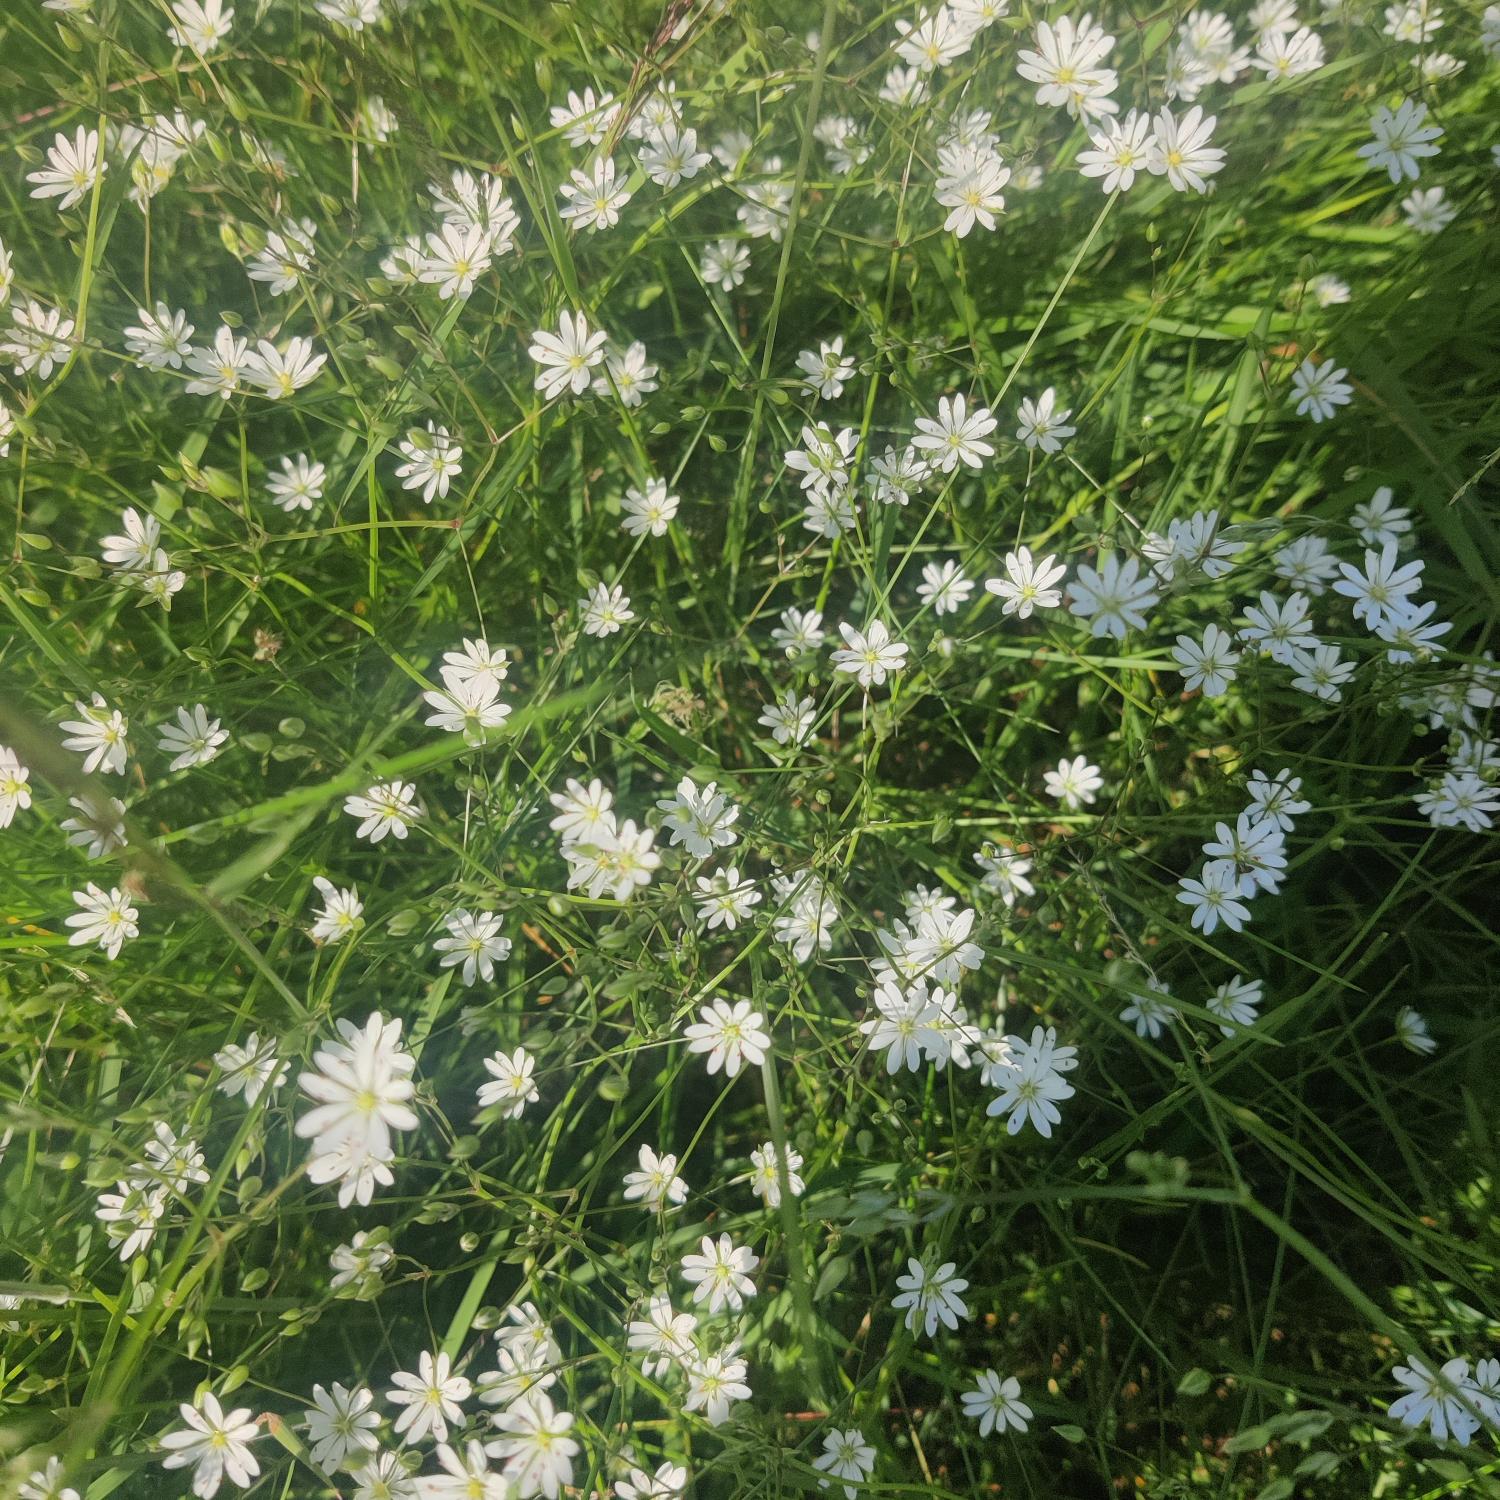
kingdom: Plantae
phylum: Tracheophyta
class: Magnoliopsida
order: Caryophyllales
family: Caryophyllaceae
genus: Stellaria
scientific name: Stellaria graminea
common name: Græsbladet fladstjerne
